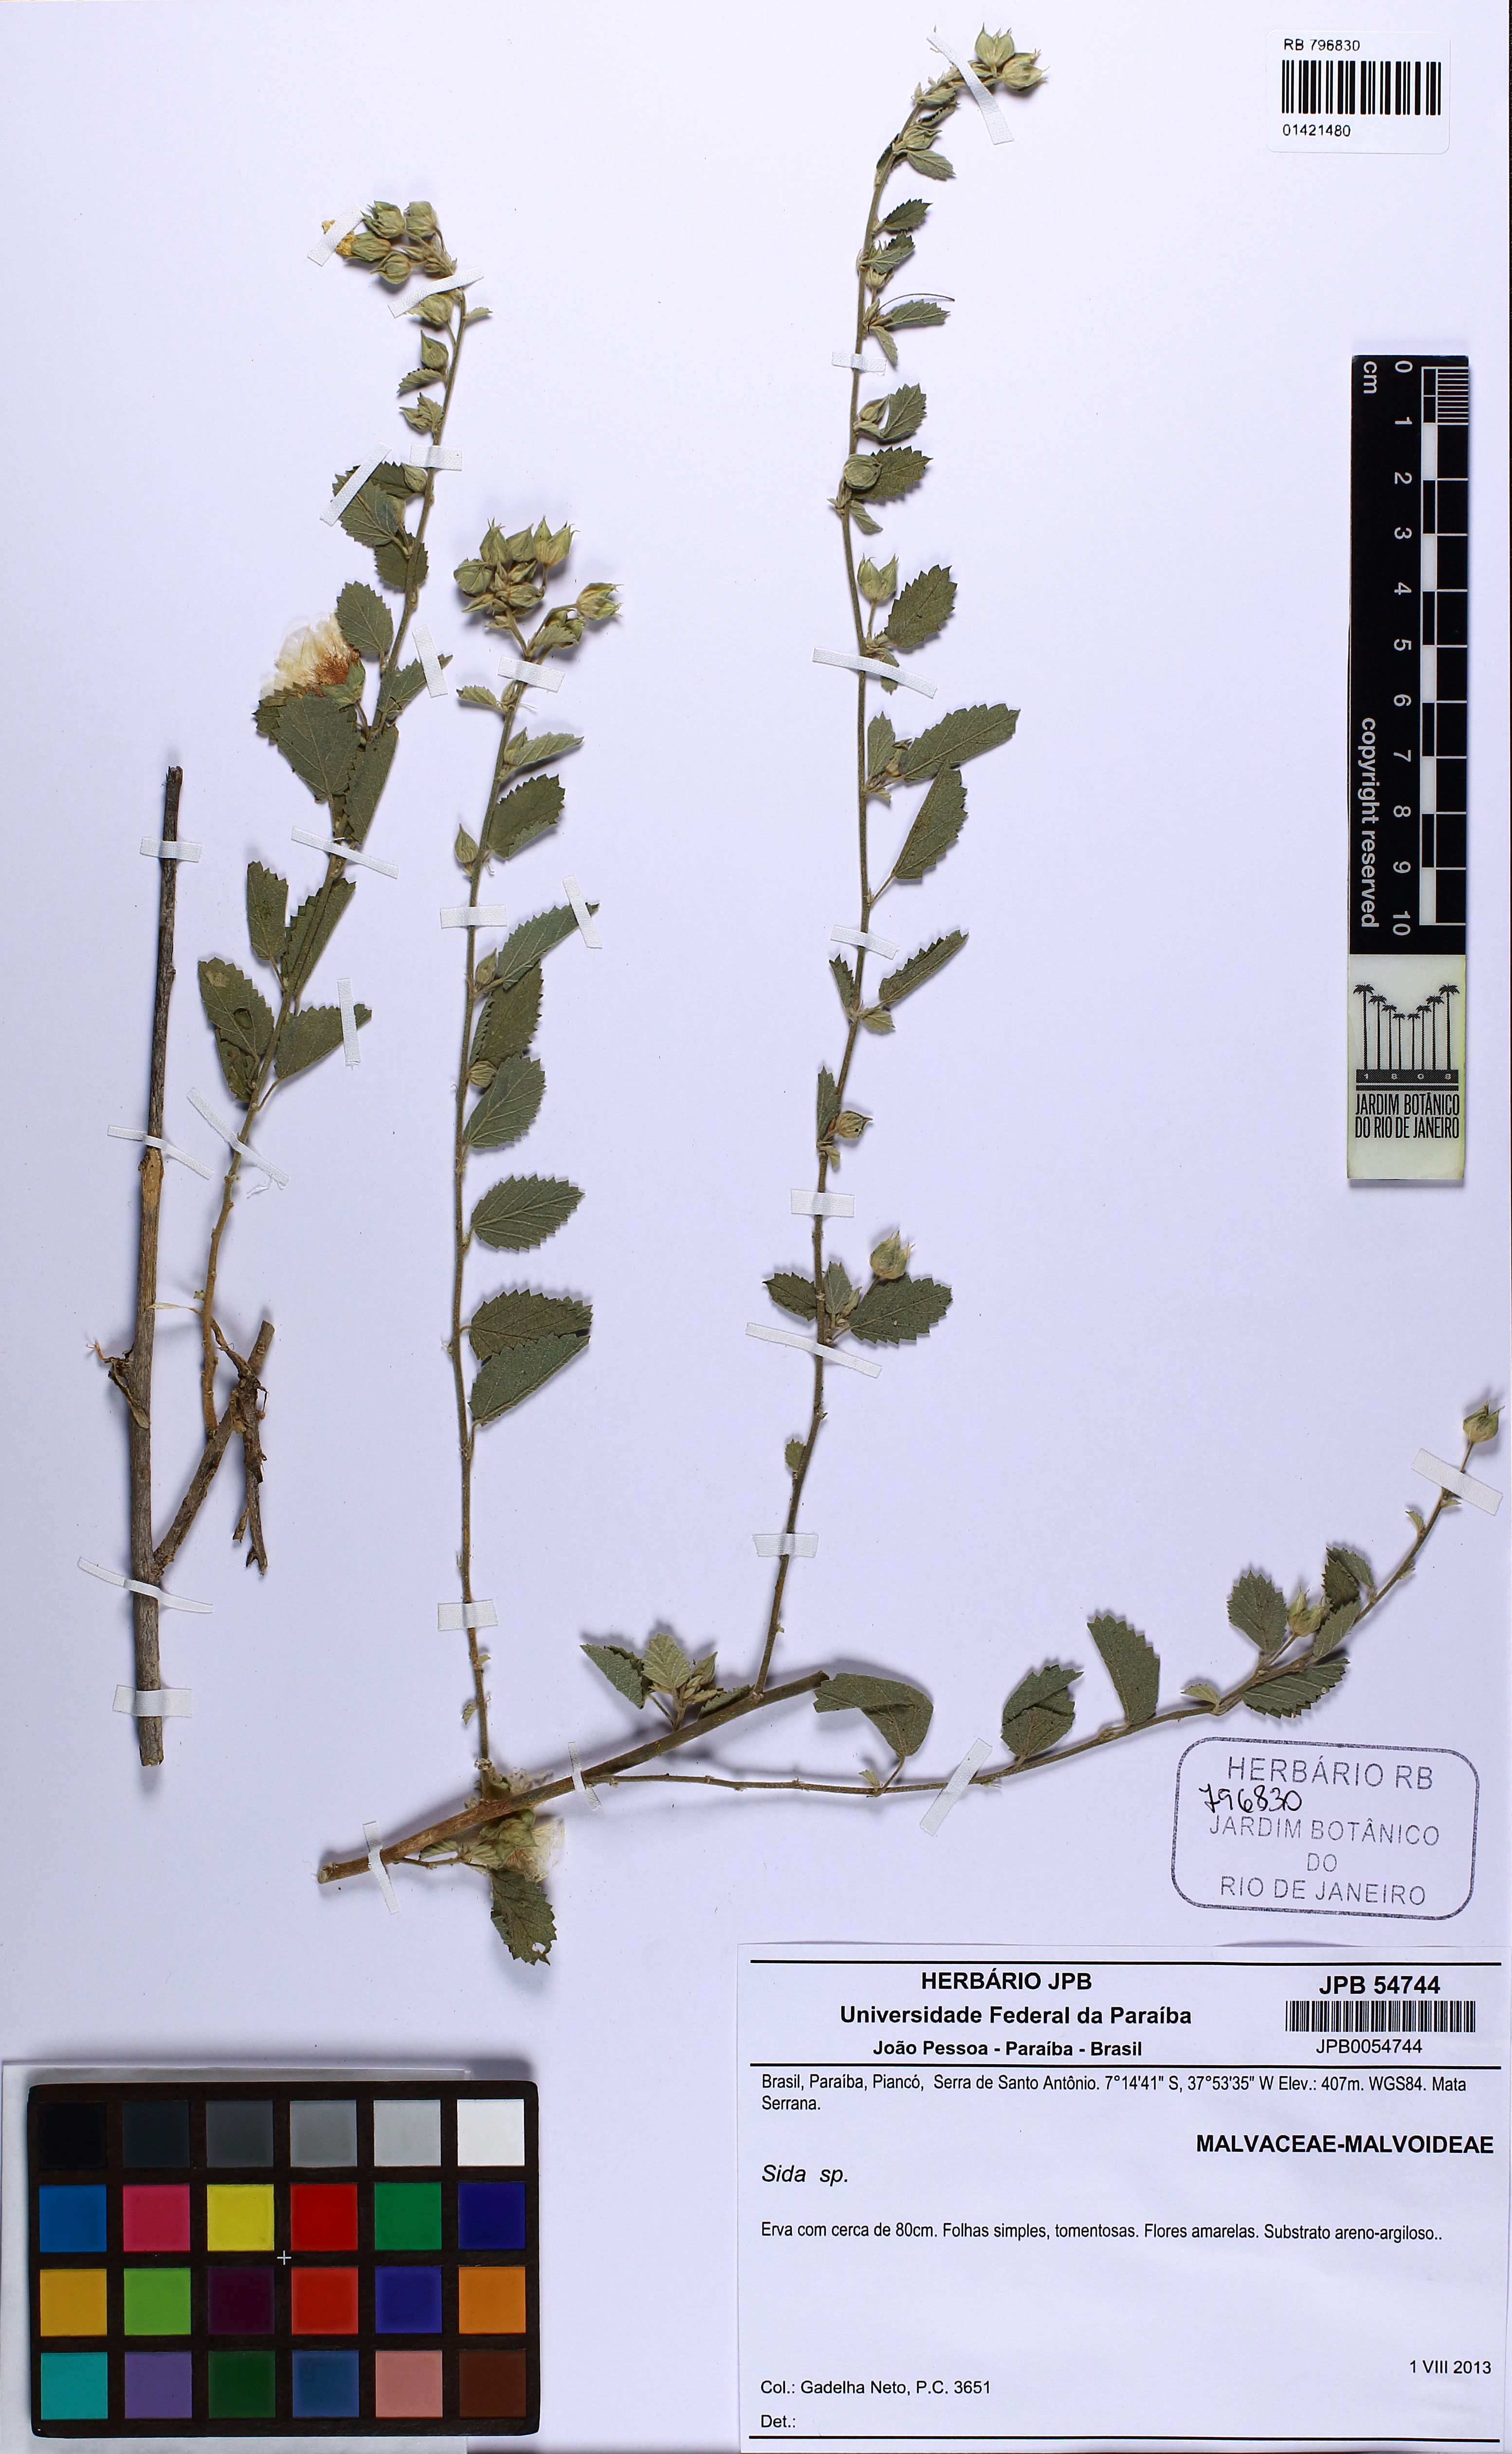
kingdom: Plantae
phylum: Tracheophyta
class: Magnoliopsida
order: Malvales
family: Malvaceae
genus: Sida
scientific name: Sida galheirensis
